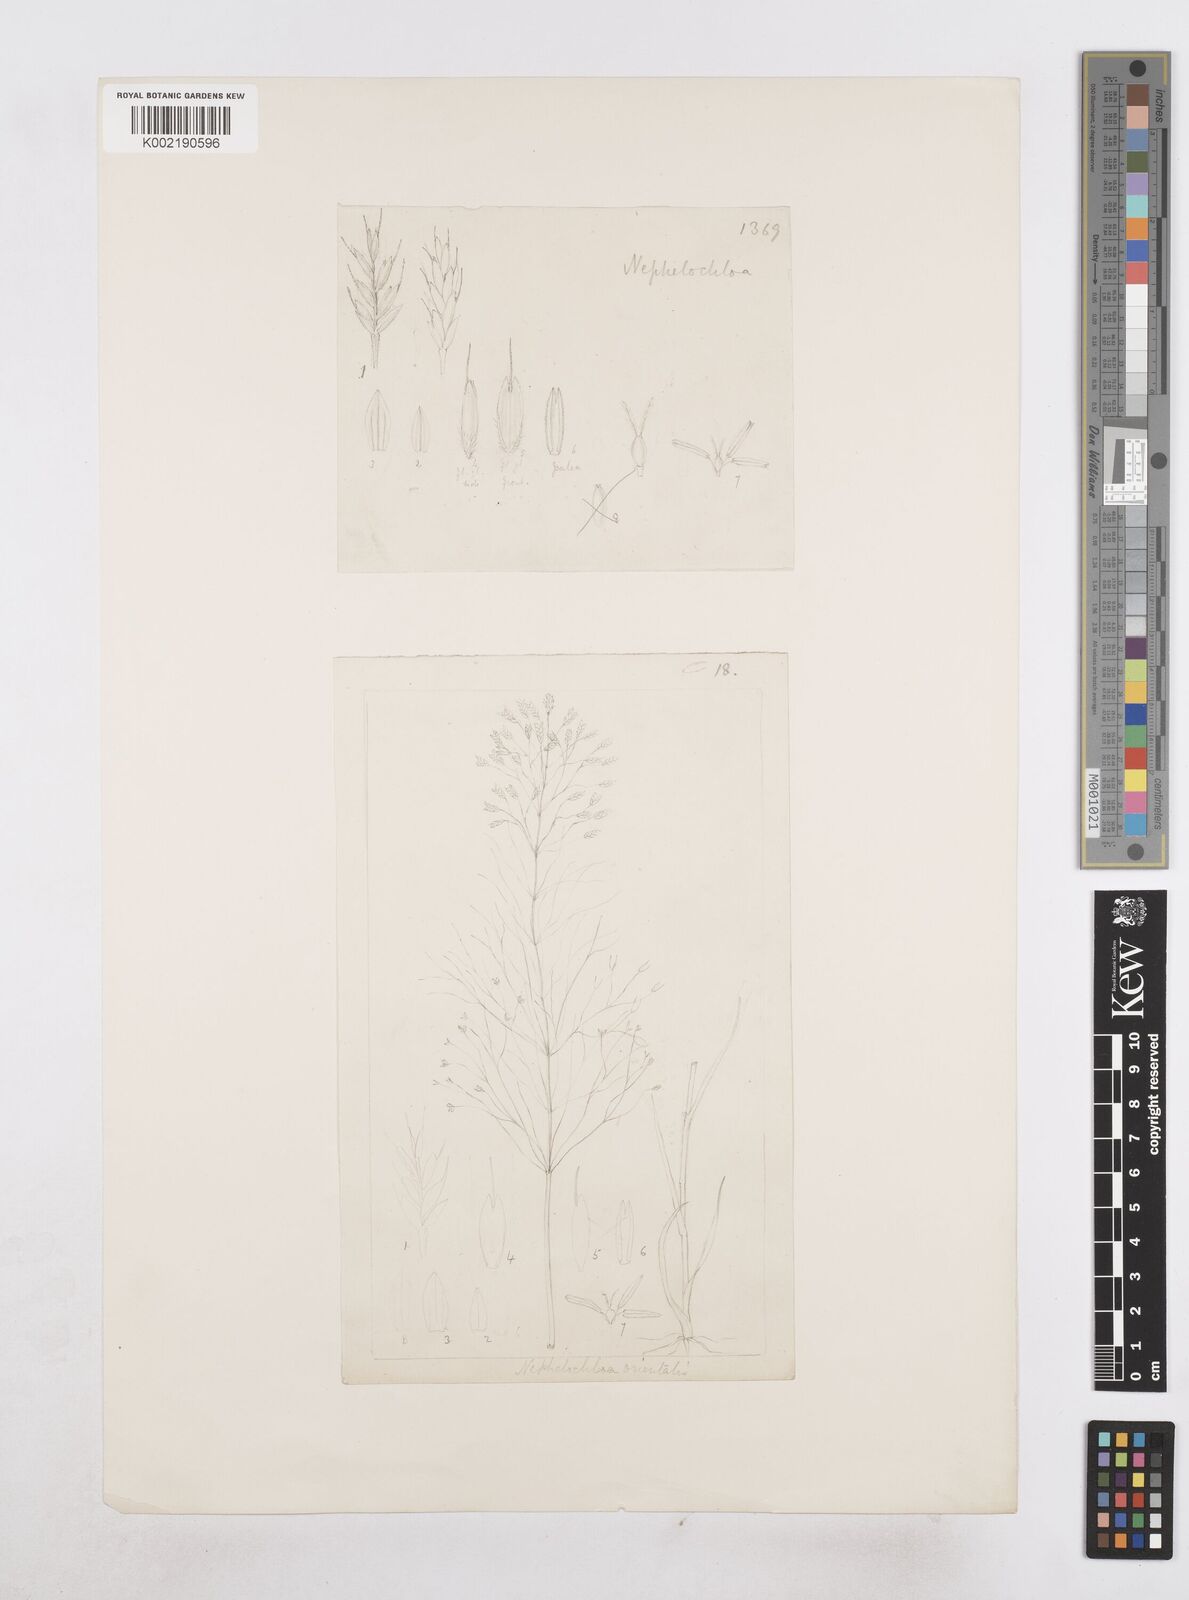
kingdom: Plantae
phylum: Tracheophyta
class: Liliopsida
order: Poales
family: Poaceae
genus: Nephelochloa
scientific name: Nephelochloa orientalis
